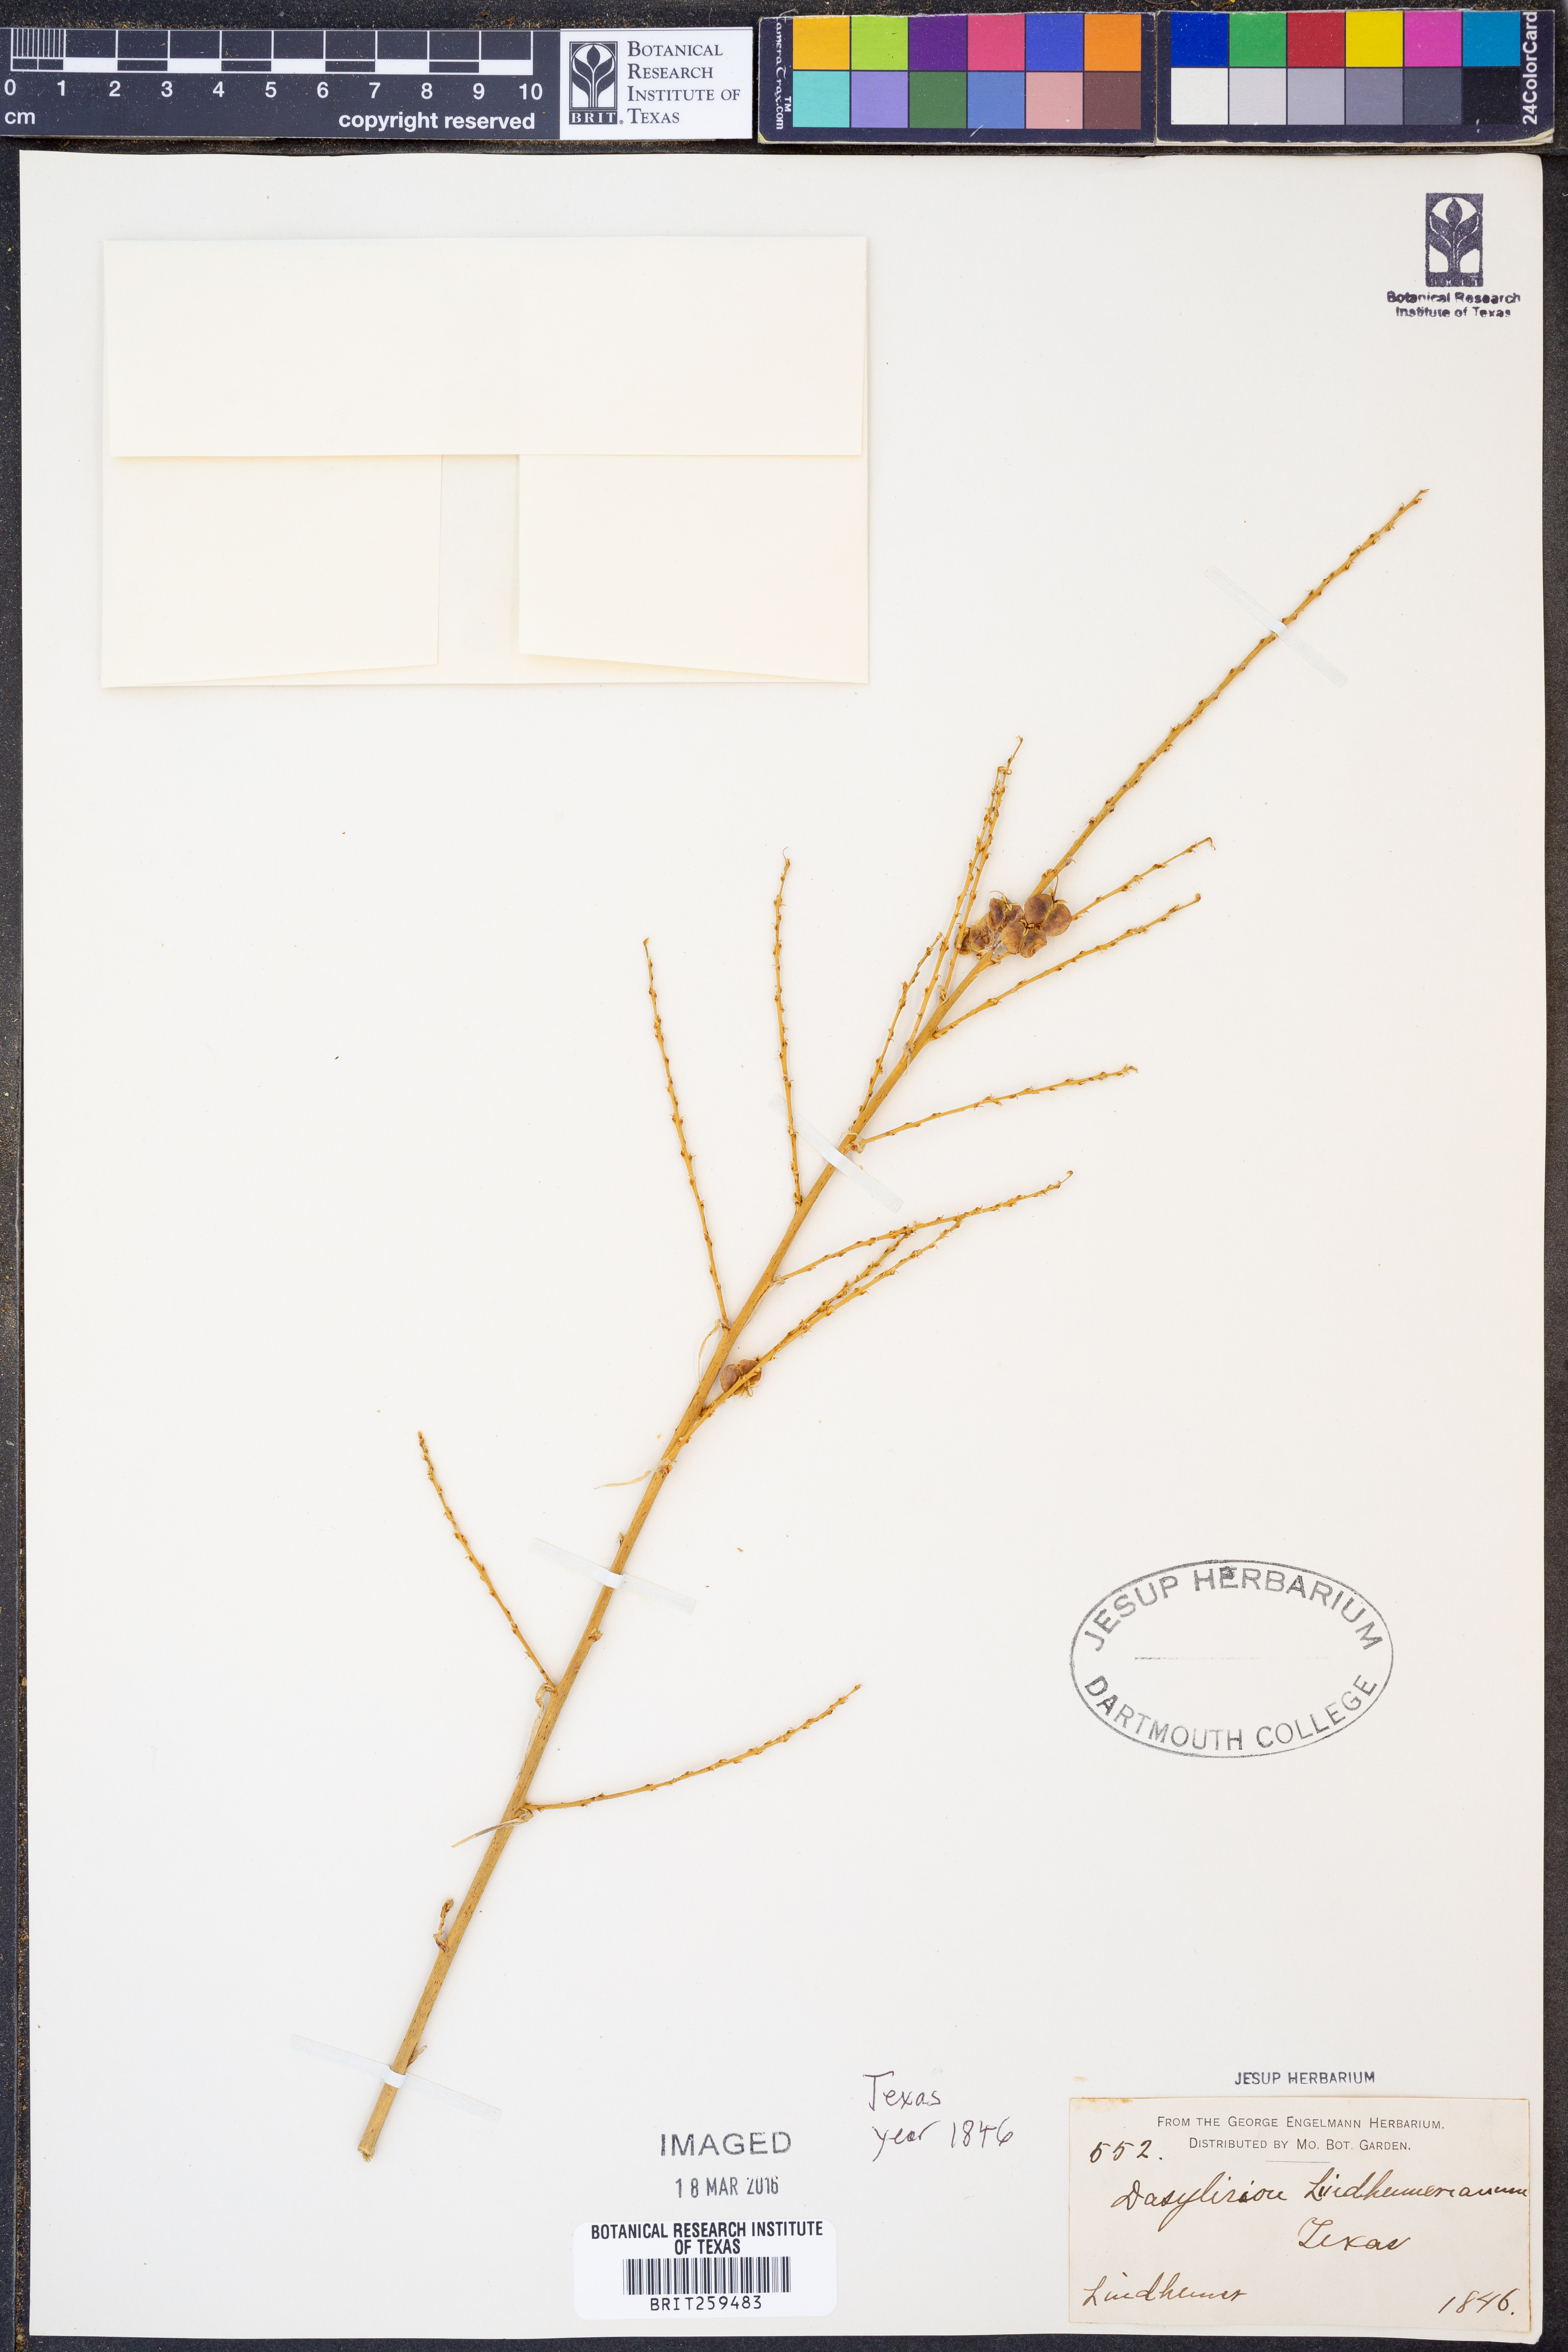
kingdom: Plantae
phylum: Tracheophyta
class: Liliopsida
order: Asparagales
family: Asparagaceae
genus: Nolina
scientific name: Nolina lindheimeriana
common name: Lindheimer's bear-grass
